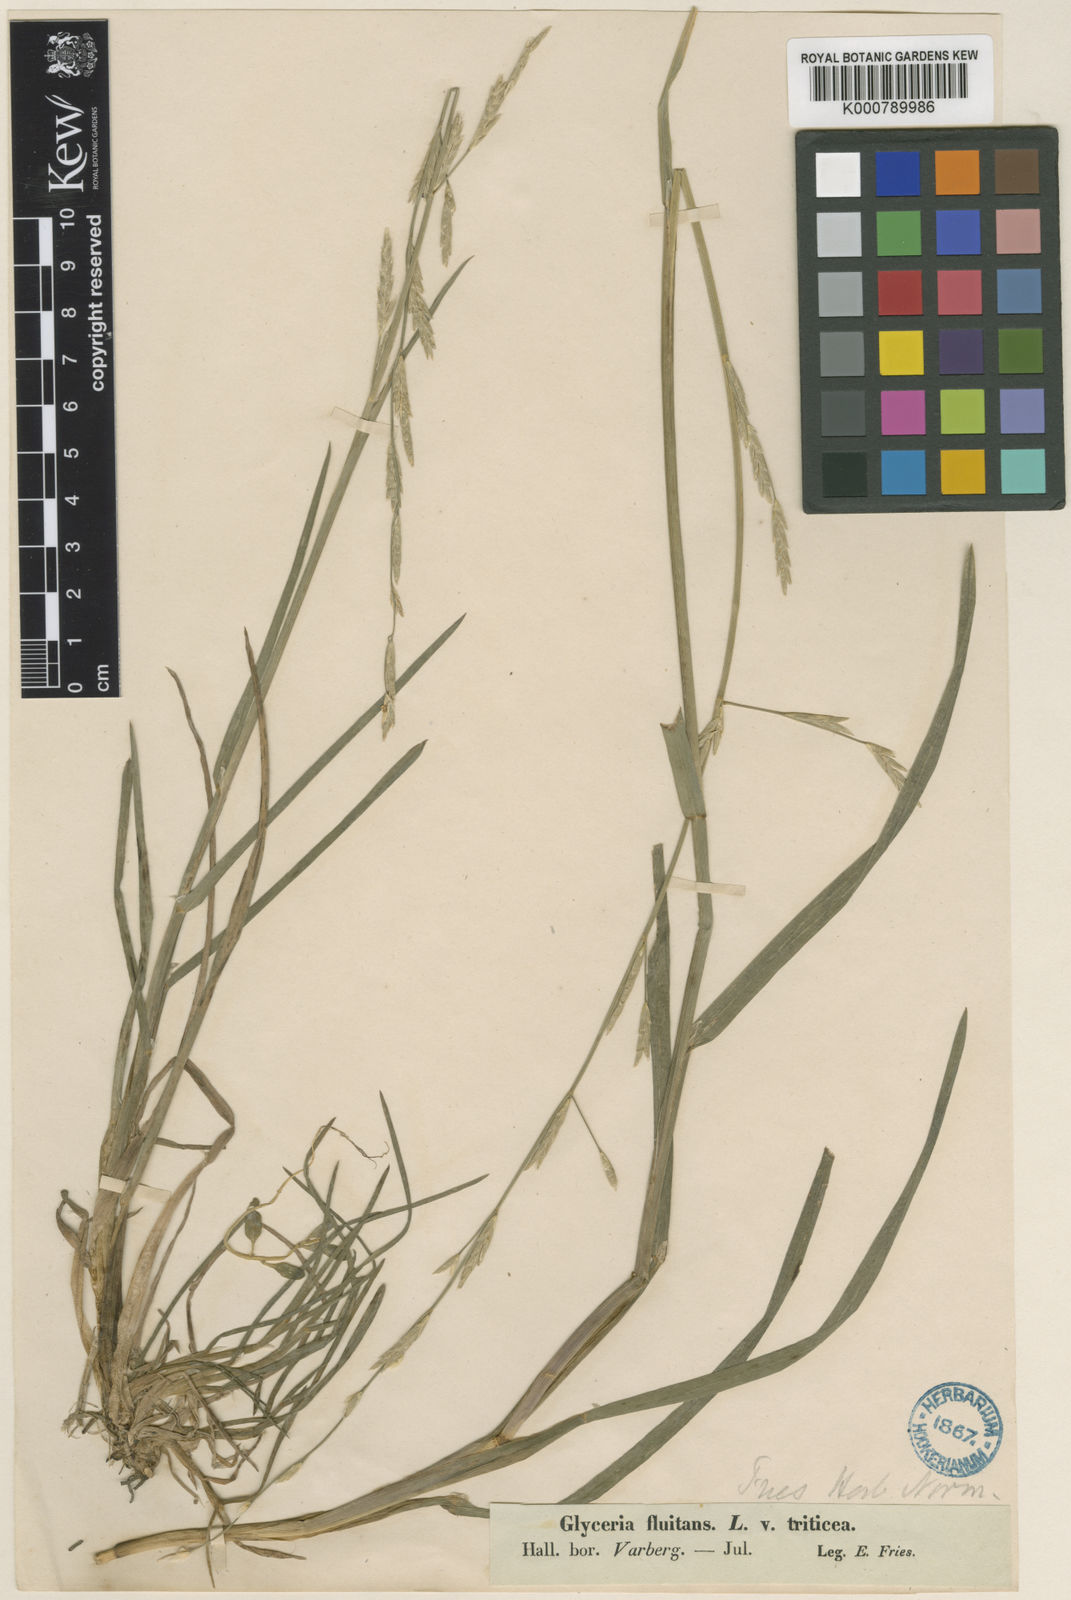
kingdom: Plantae
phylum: Tracheophyta
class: Liliopsida
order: Poales
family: Poaceae
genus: Glyceria
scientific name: Glyceria fluitans
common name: Floating sweet-grass
